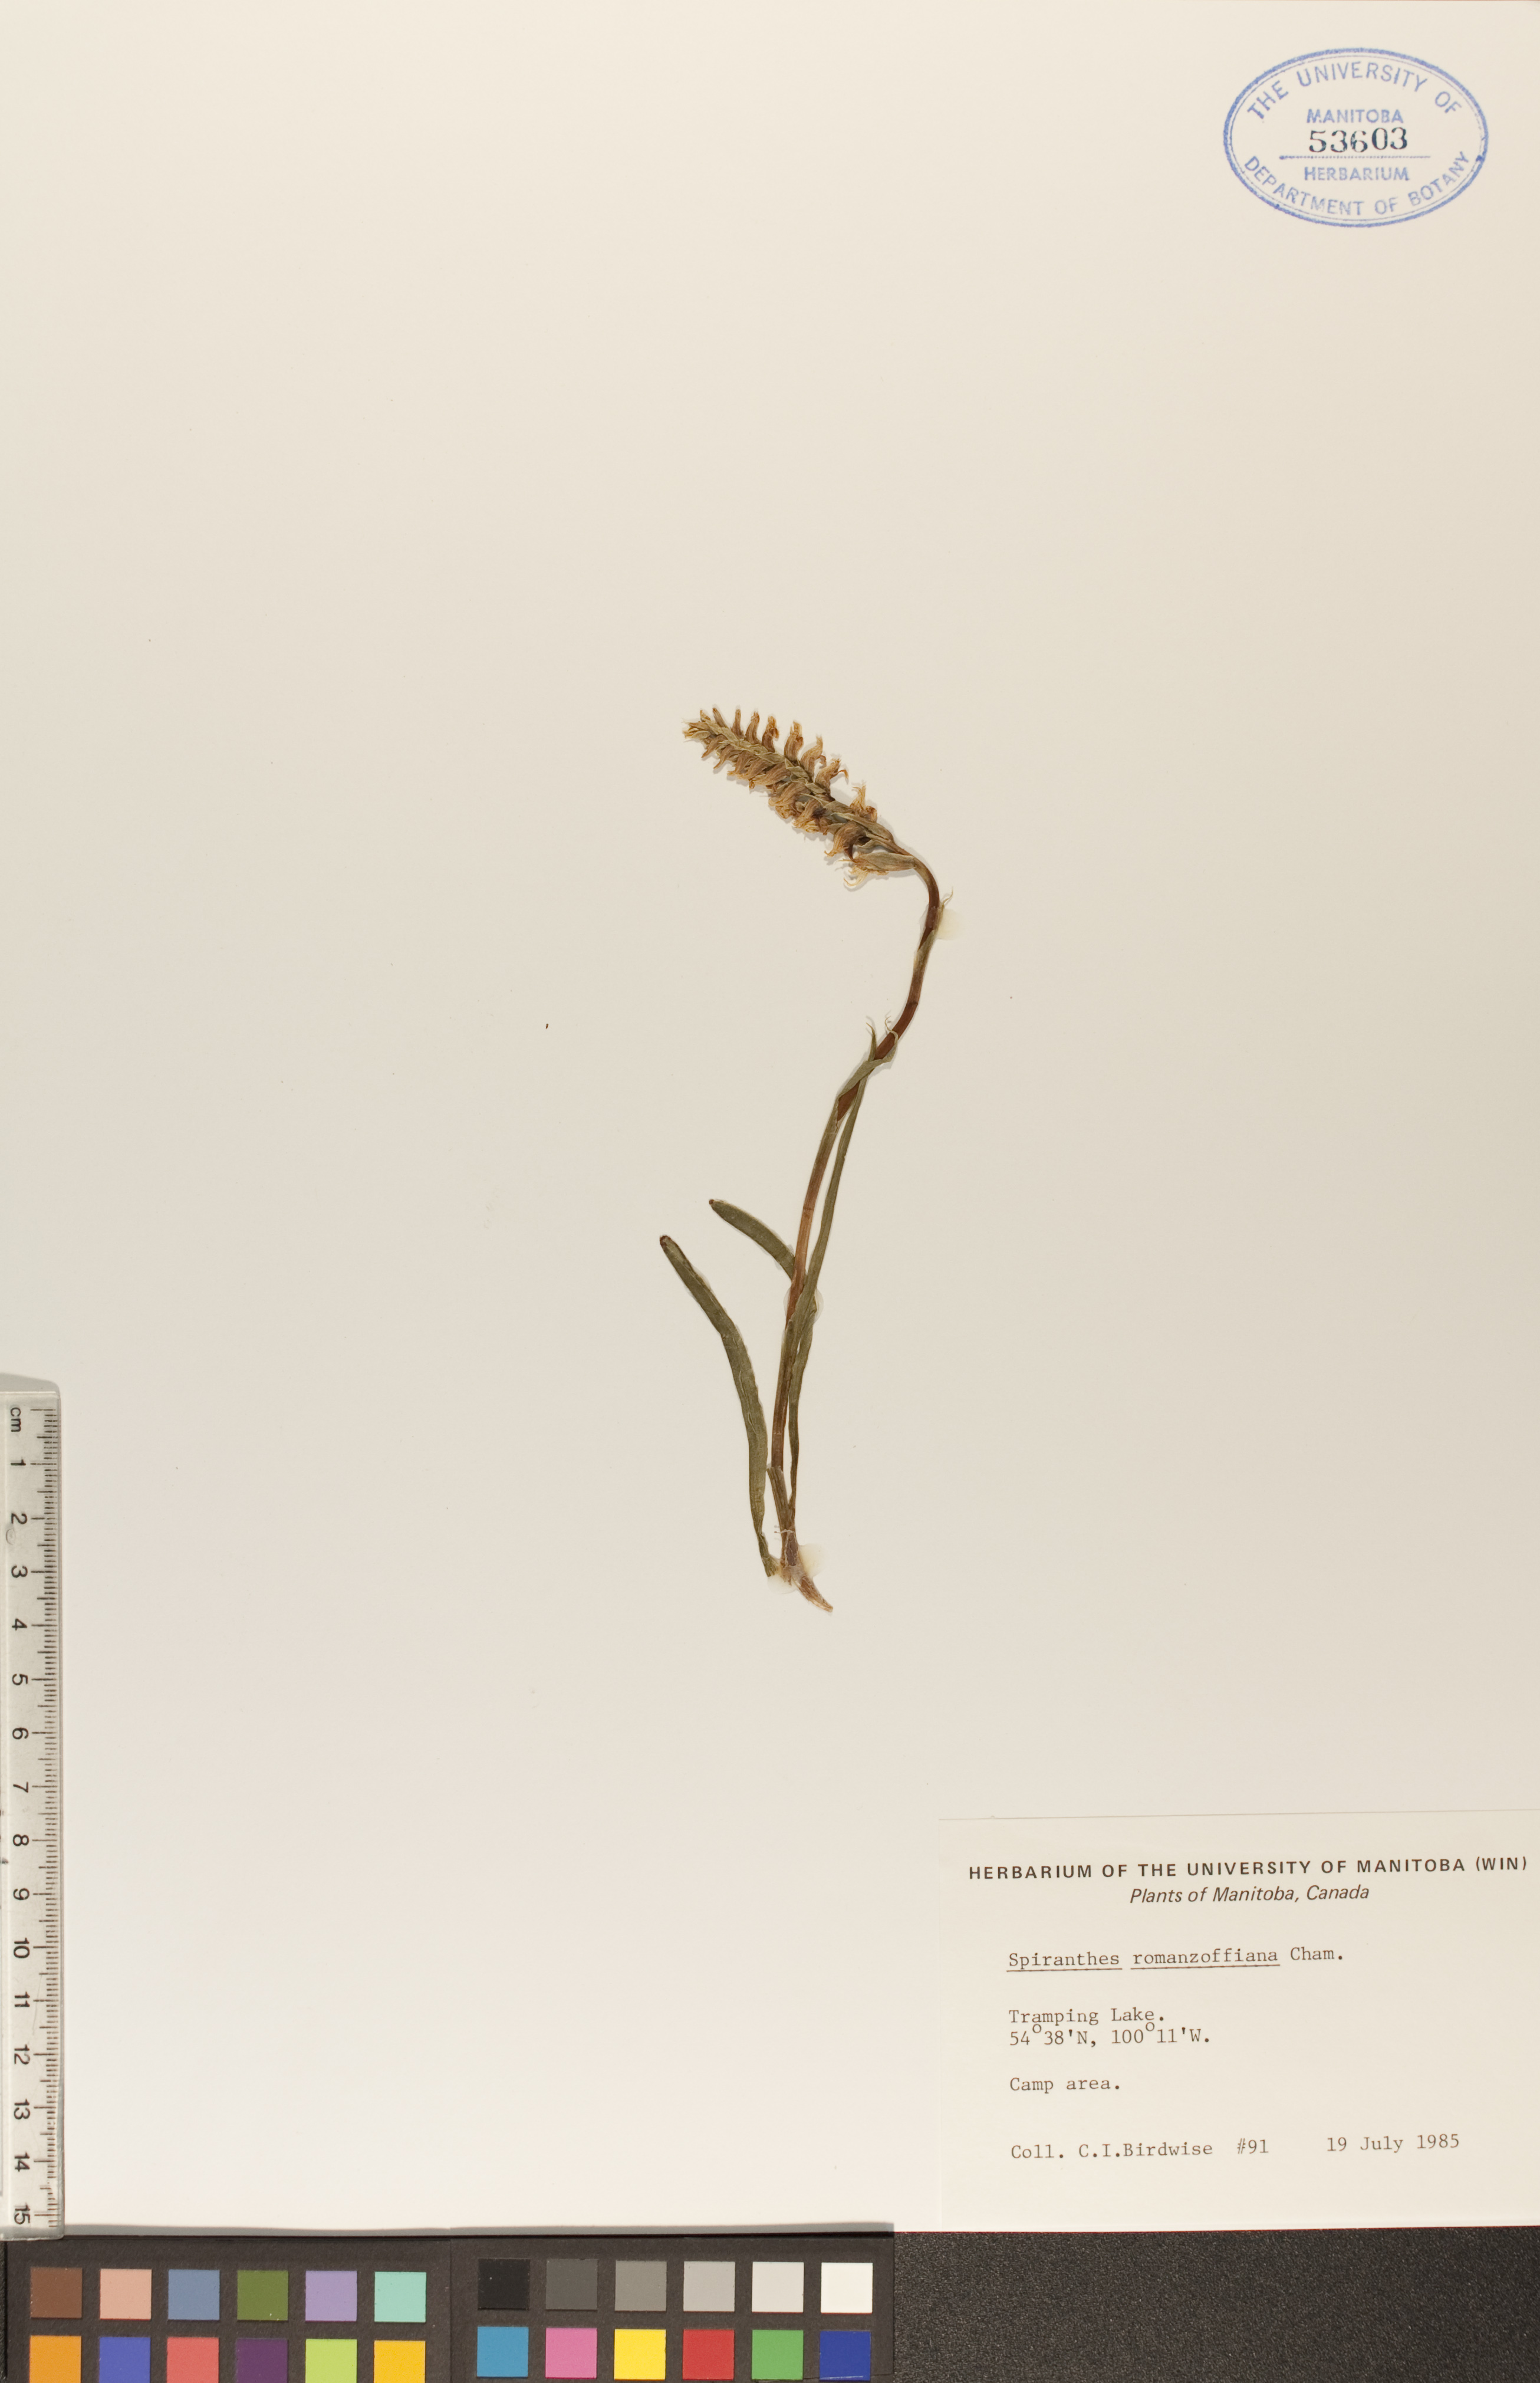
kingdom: Plantae
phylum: Tracheophyta
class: Liliopsida
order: Asparagales
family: Orchidaceae
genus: Spiranthes
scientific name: Spiranthes romanzoffiana
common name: Irish lady's-tresses
